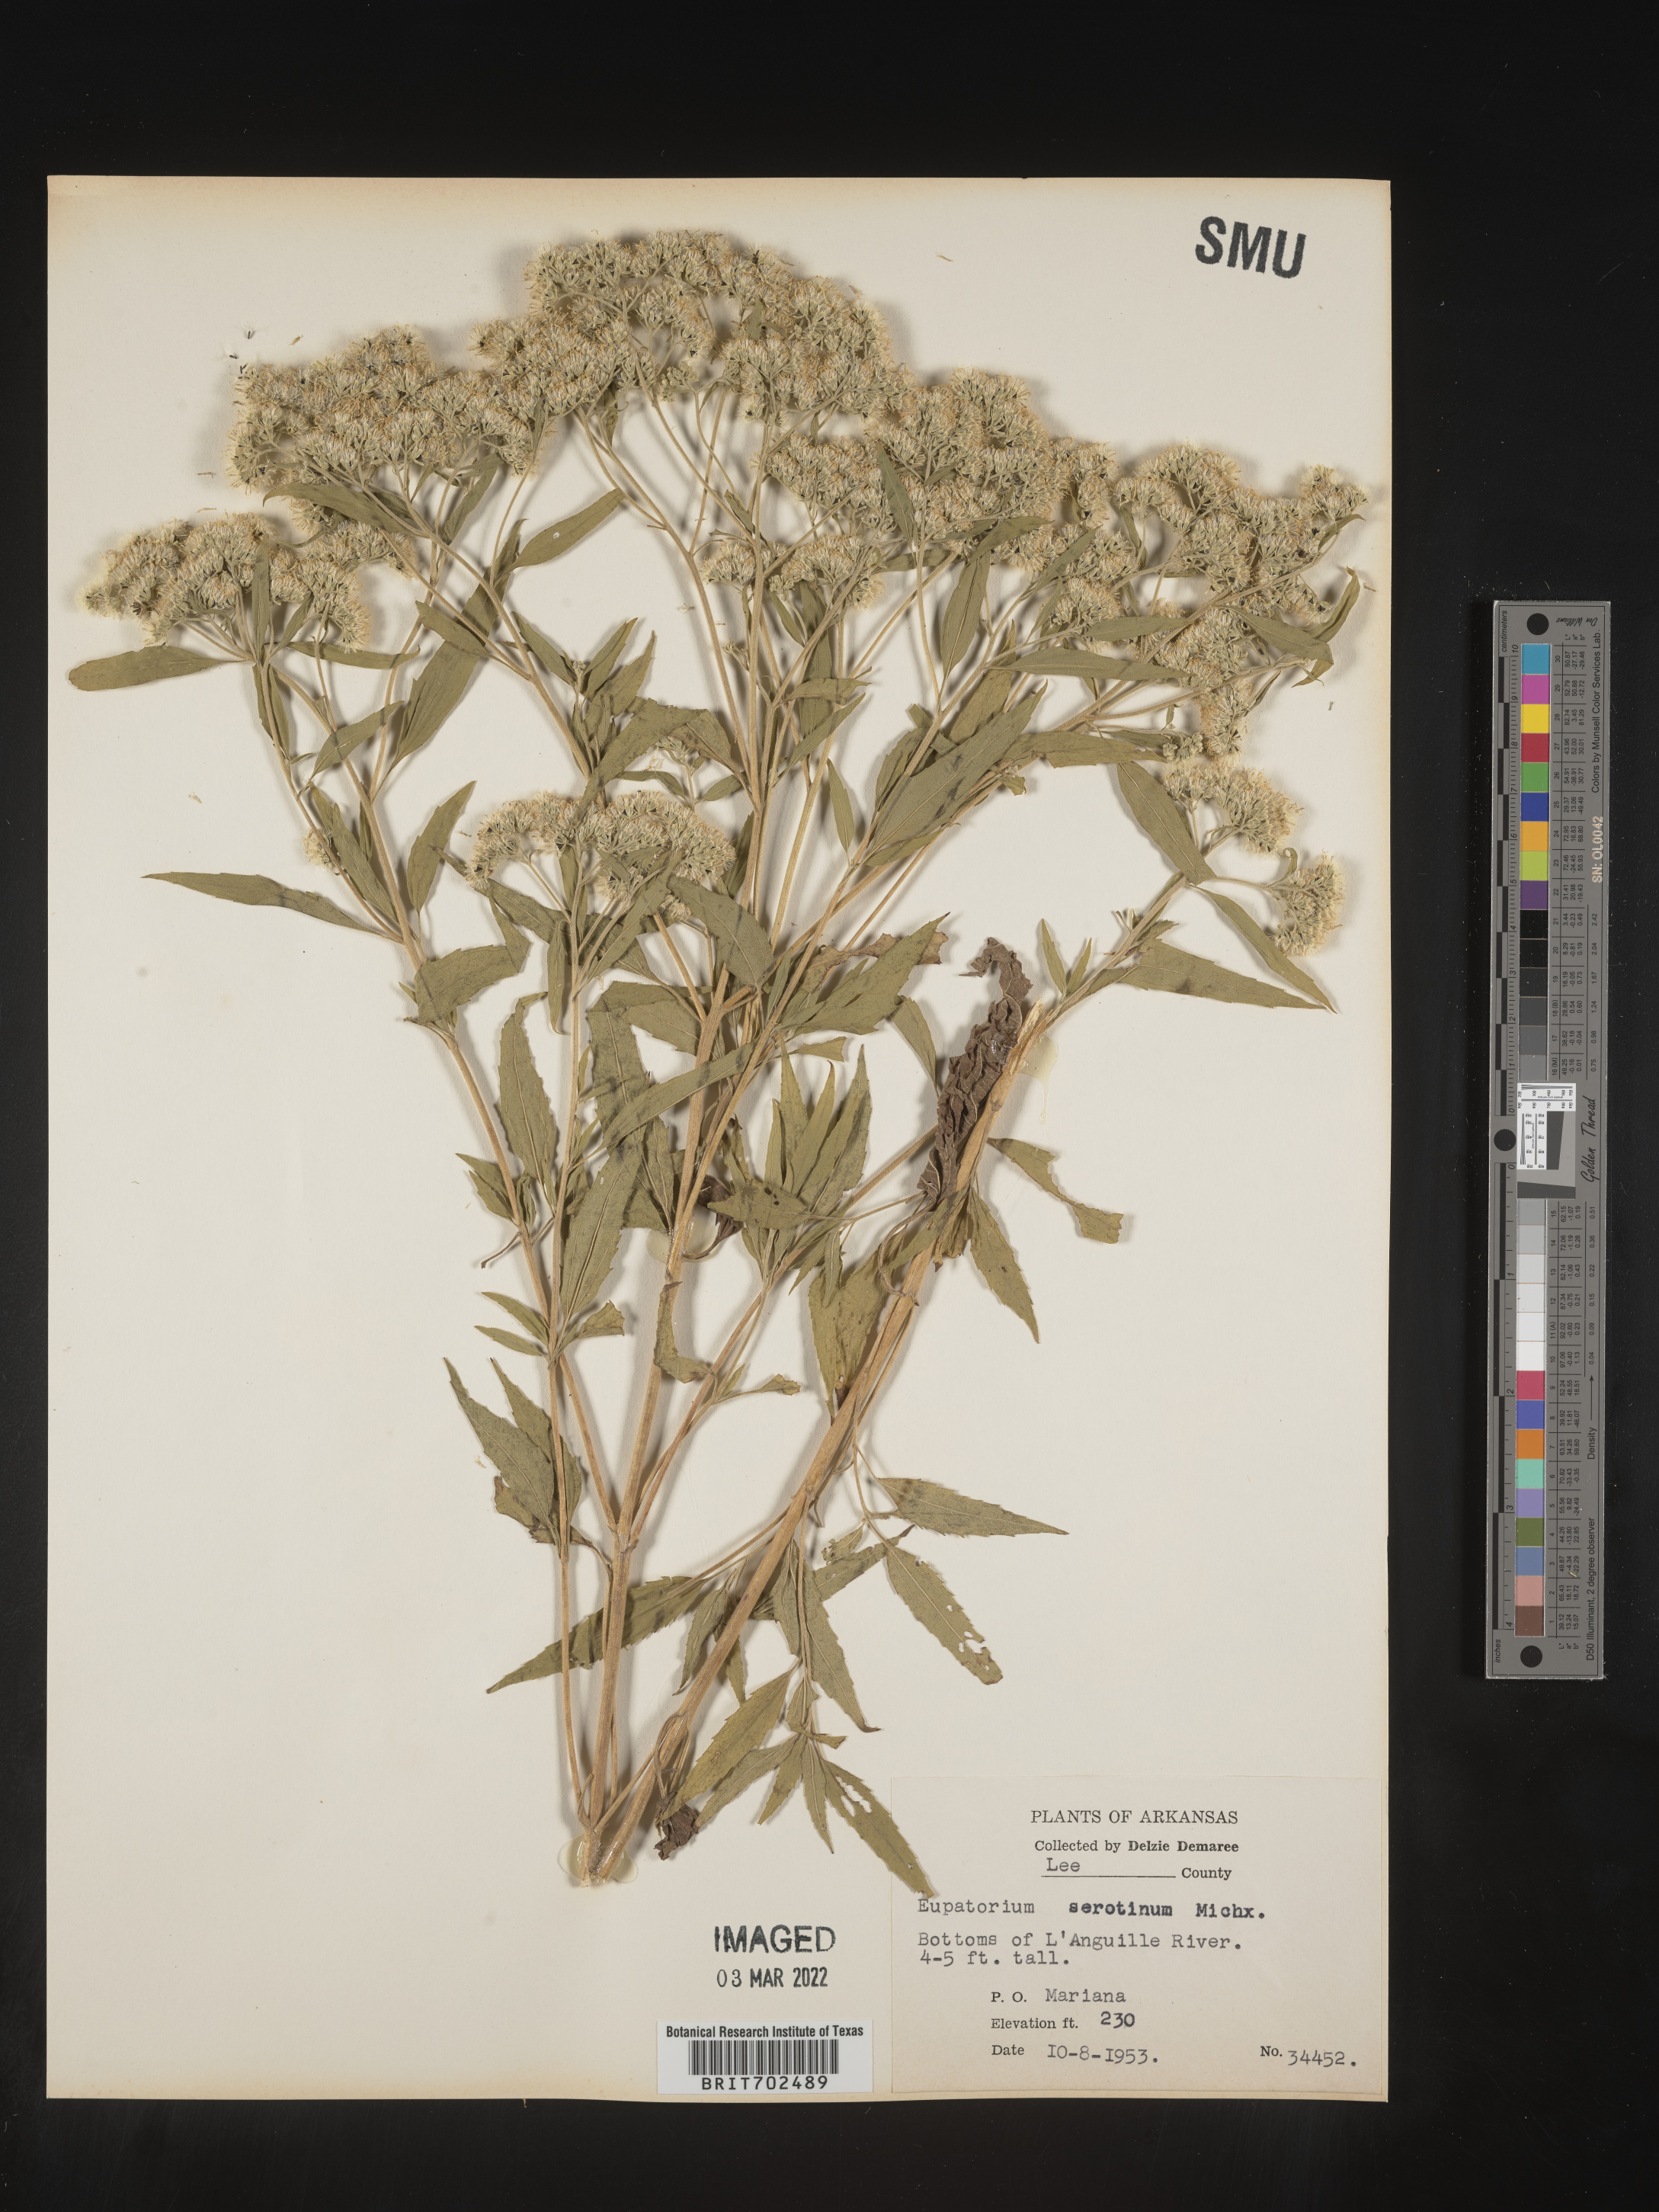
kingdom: Plantae
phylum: Tracheophyta
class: Magnoliopsida
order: Asterales
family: Asteraceae
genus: Eupatorium
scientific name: Eupatorium serotinum
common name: Late boneset
